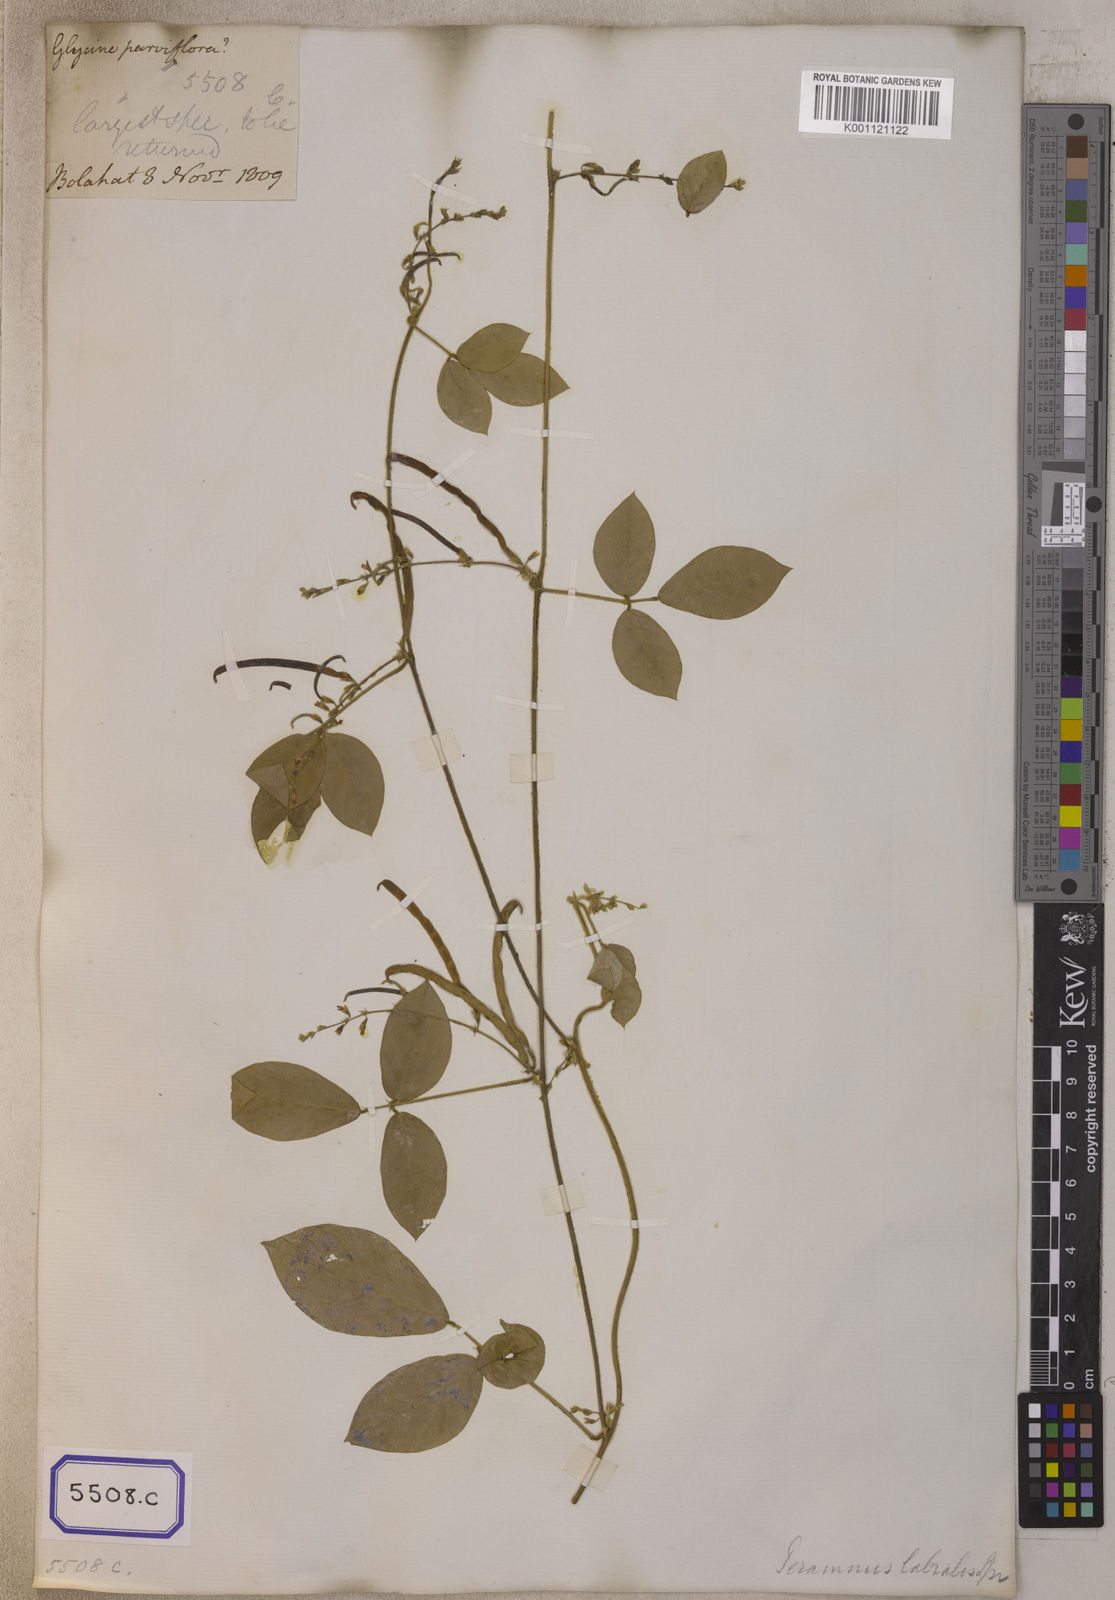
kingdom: Plantae
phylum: Tracheophyta
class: Magnoliopsida
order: Fabales
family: Fabaceae
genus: Teramnus
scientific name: Teramnus labialis
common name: Blue wiss
